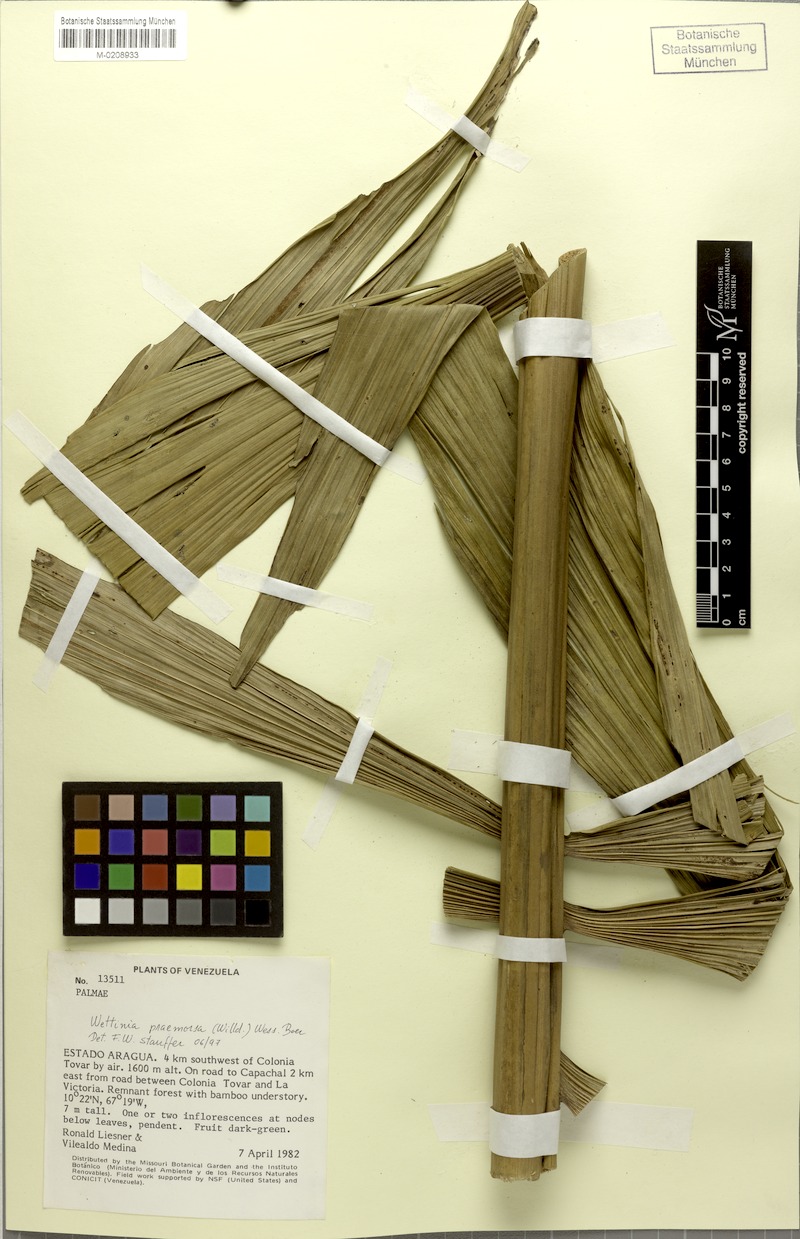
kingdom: Plantae
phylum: Tracheophyta
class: Liliopsida
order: Arecales
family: Arecaceae
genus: Wettinia
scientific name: Wettinia praemorsa
